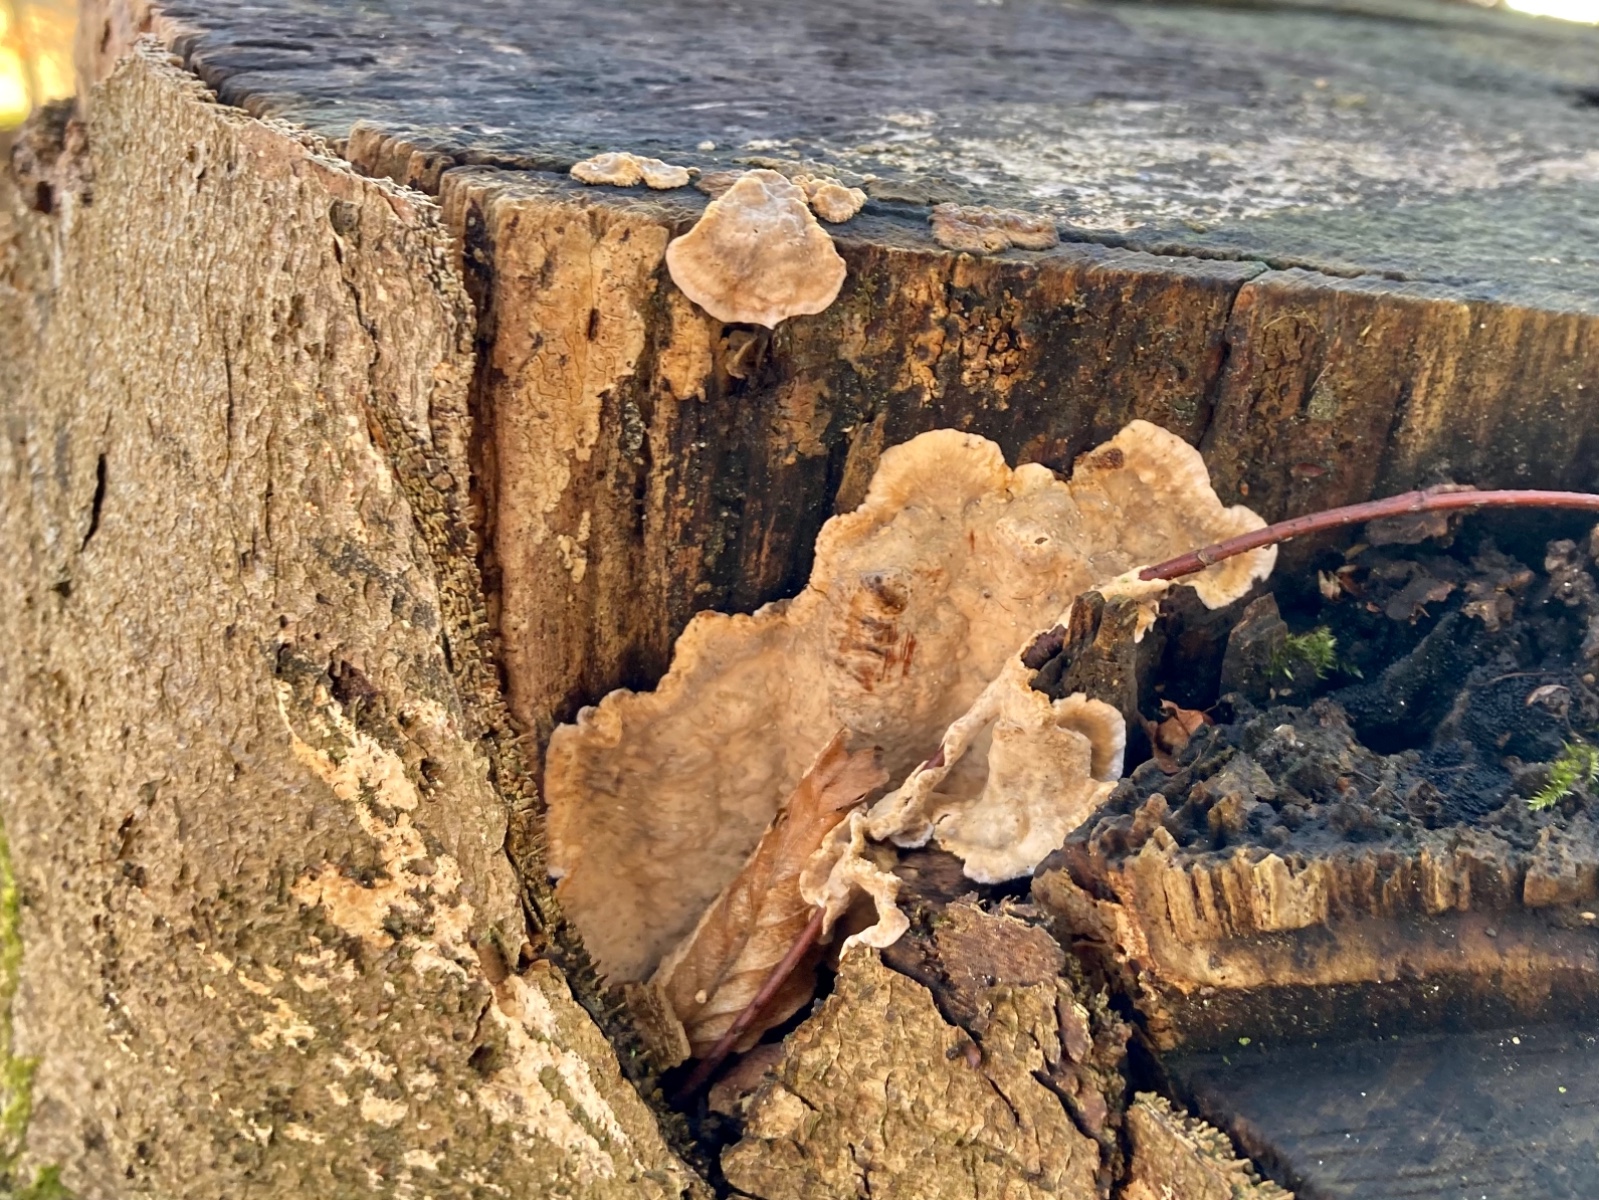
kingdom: Fungi
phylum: Basidiomycota
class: Agaricomycetes
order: Russulales
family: Stereaceae
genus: Stereum
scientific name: Stereum rugosum
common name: rynket lædersvamp
